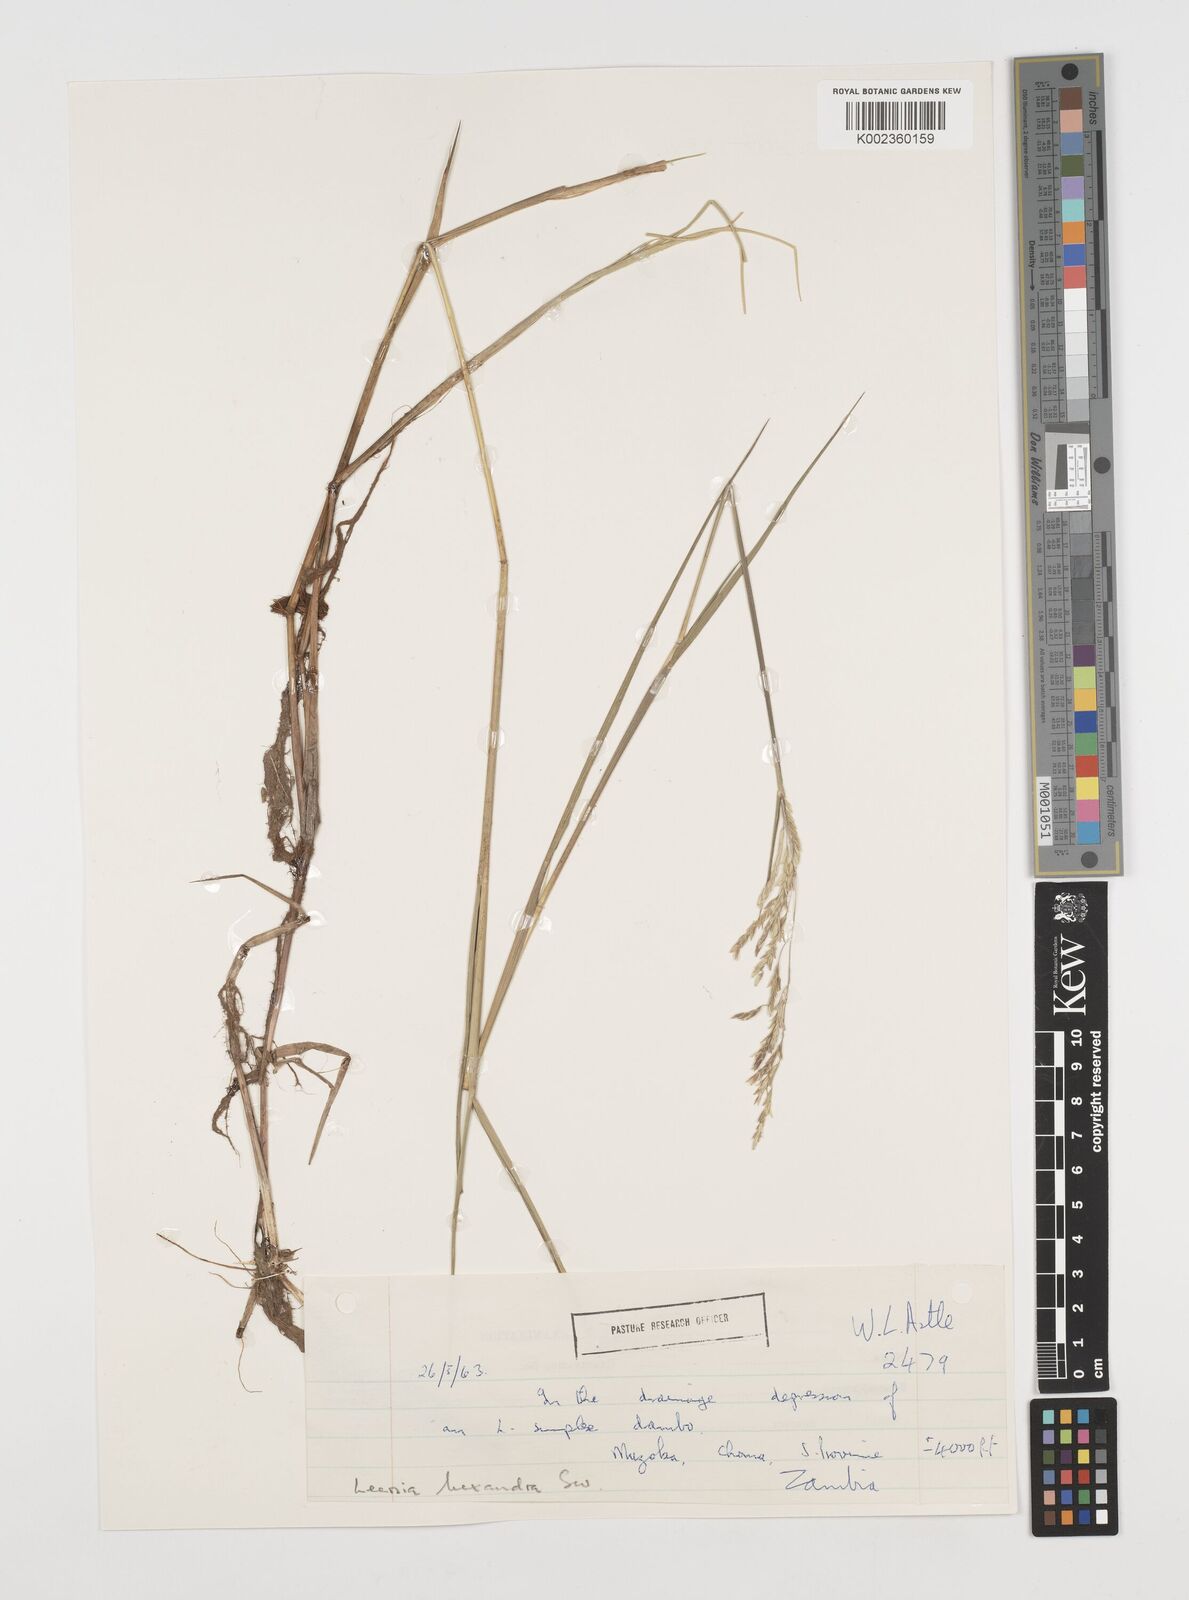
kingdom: Plantae
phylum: Tracheophyta
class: Liliopsida
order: Poales
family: Poaceae
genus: Leersia
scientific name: Leersia hexandra
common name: Southern cut grass
